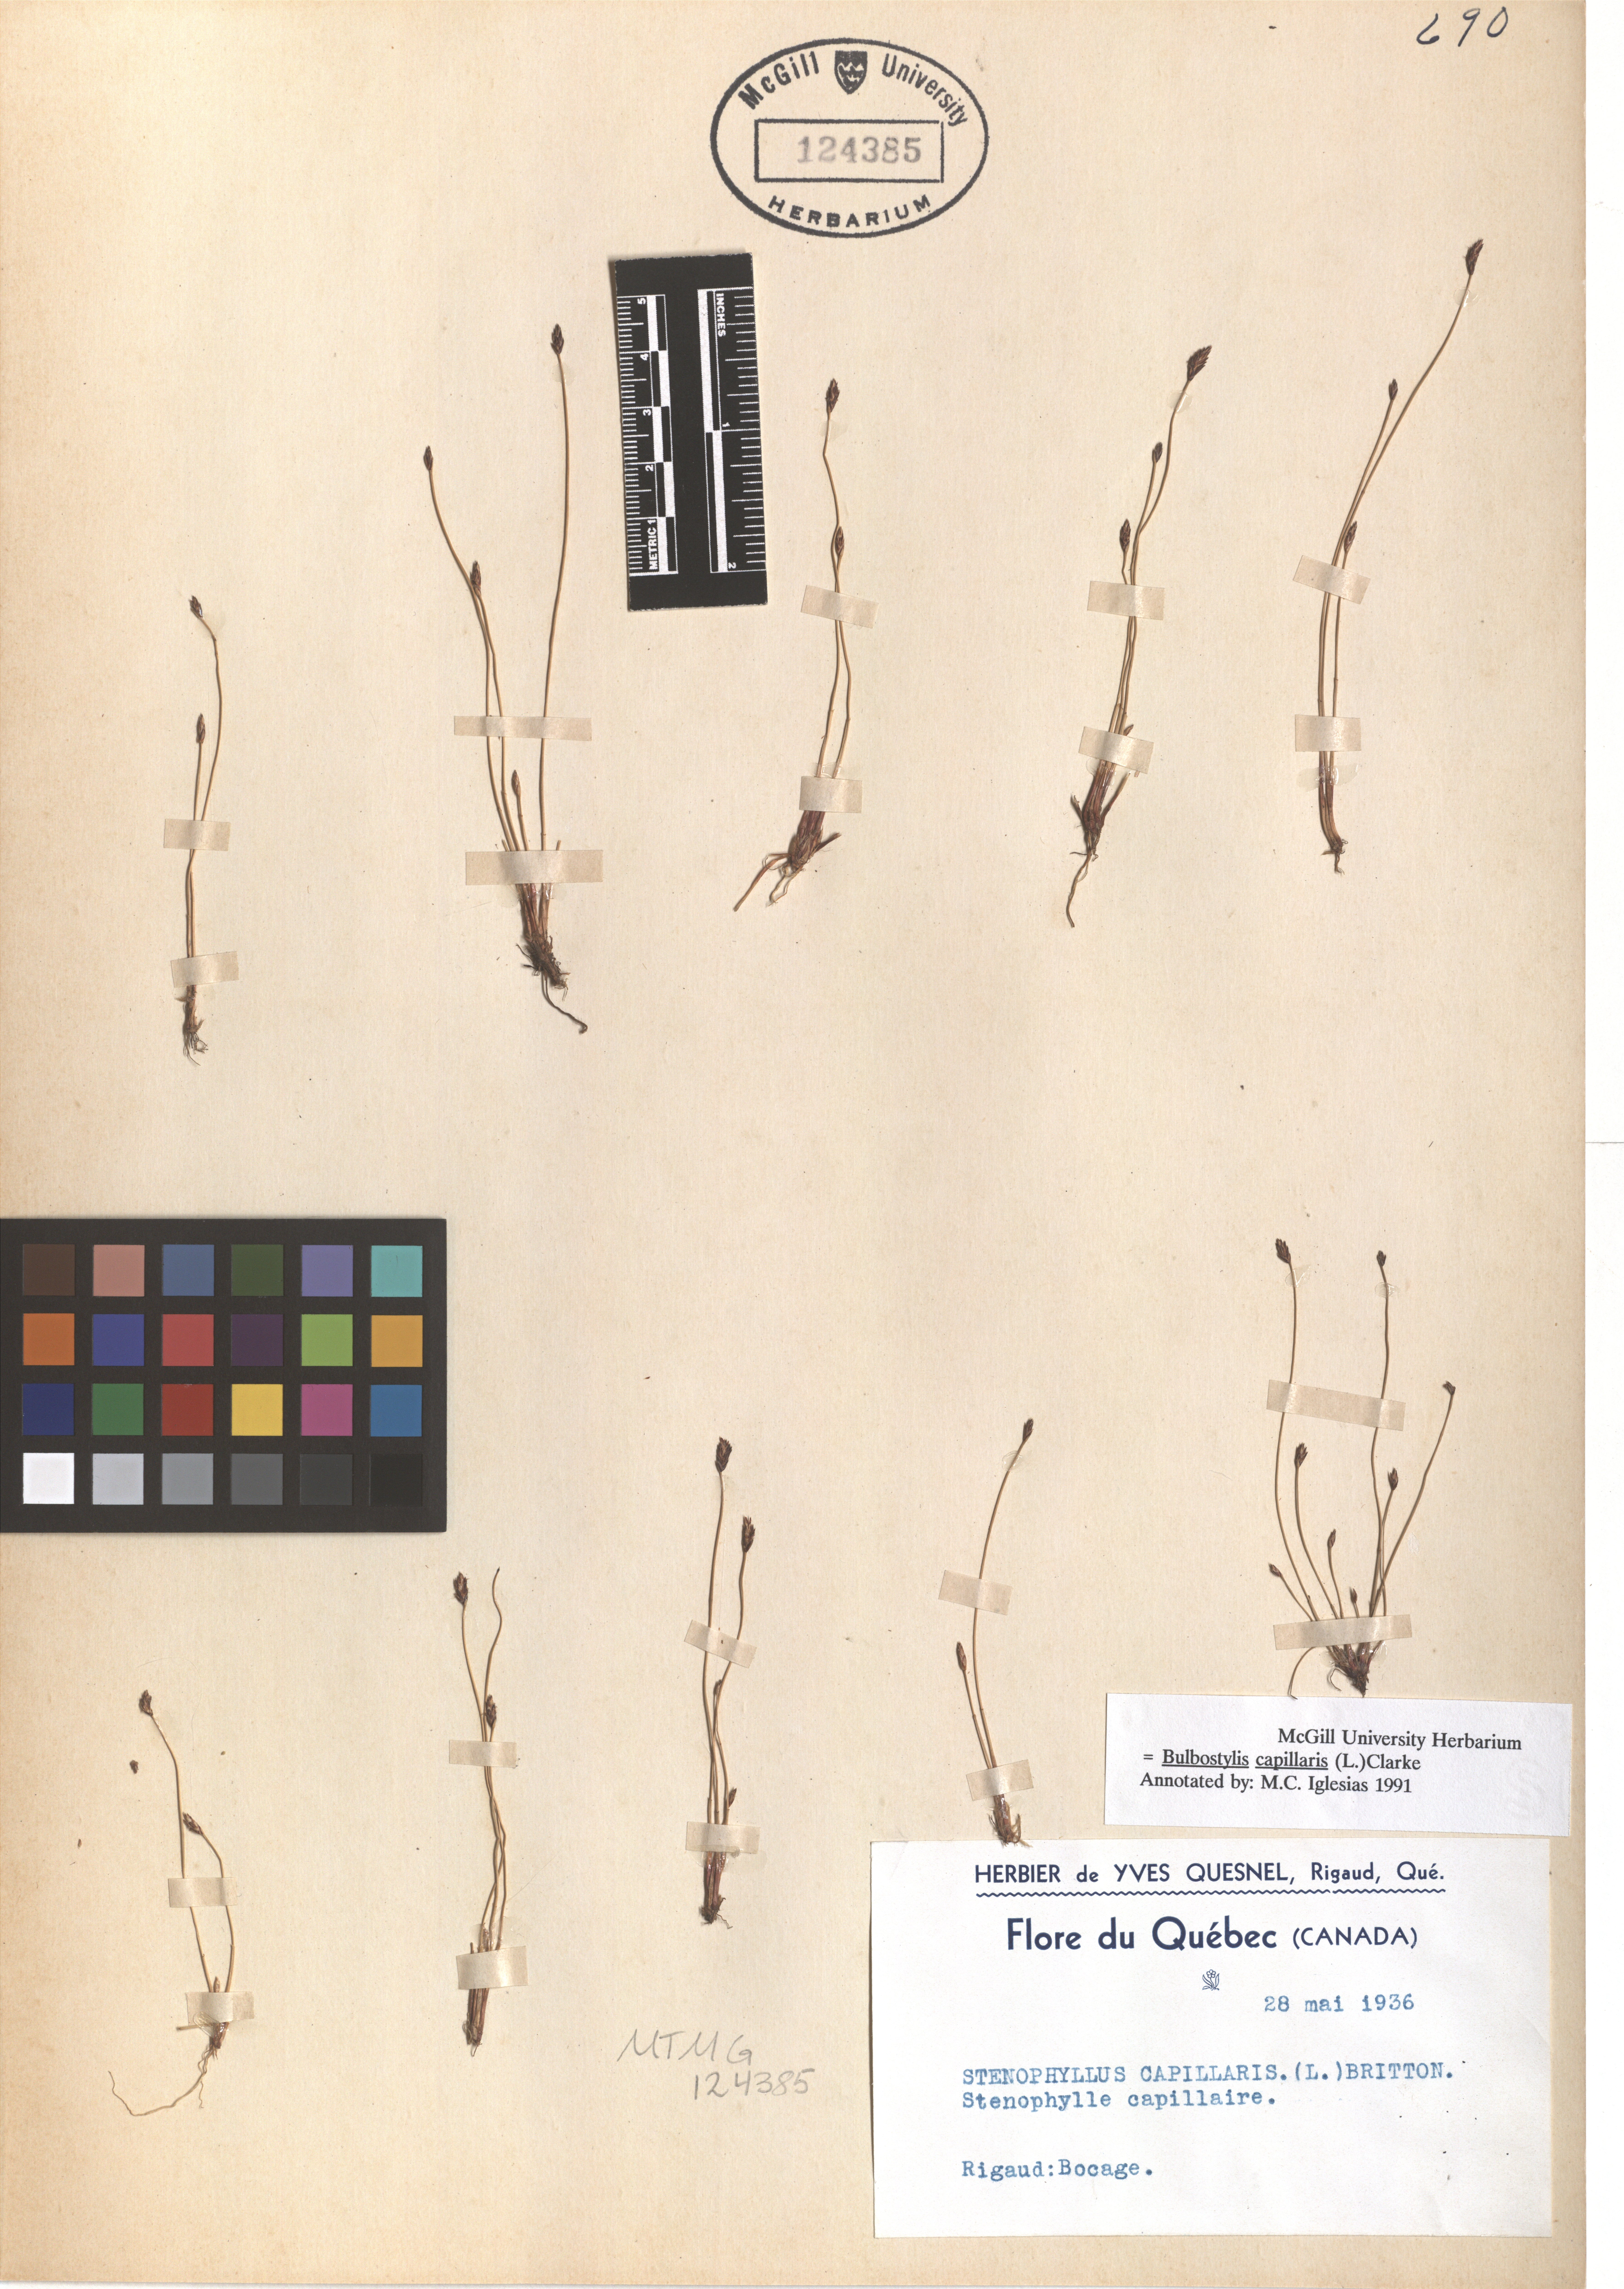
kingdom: Plantae
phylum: Tracheophyta
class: Liliopsida
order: Poales
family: Cyperaceae
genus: Bulbostylis
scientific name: Bulbostylis capillaris
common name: Densetuft hairsedge
